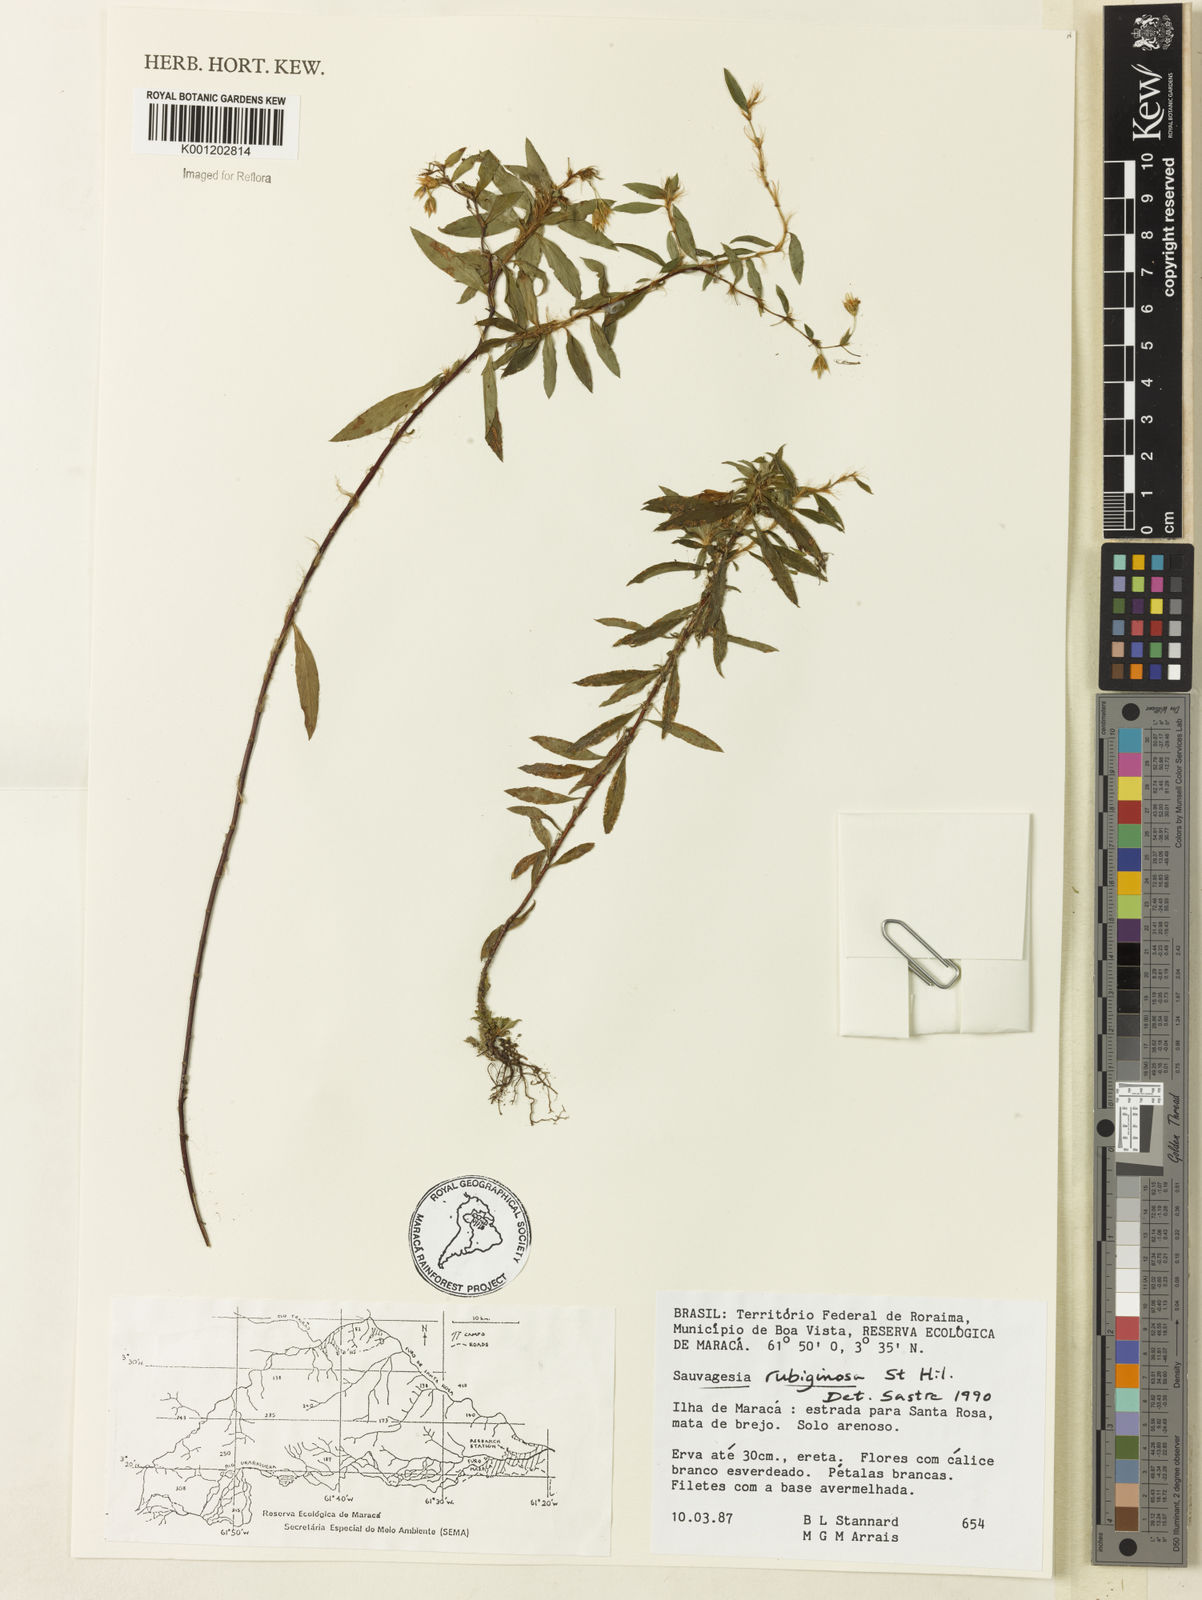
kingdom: Plantae
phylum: Tracheophyta
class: Magnoliopsida
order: Malpighiales
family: Ochnaceae
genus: Sauvagesia
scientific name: Sauvagesia rubiginosa
